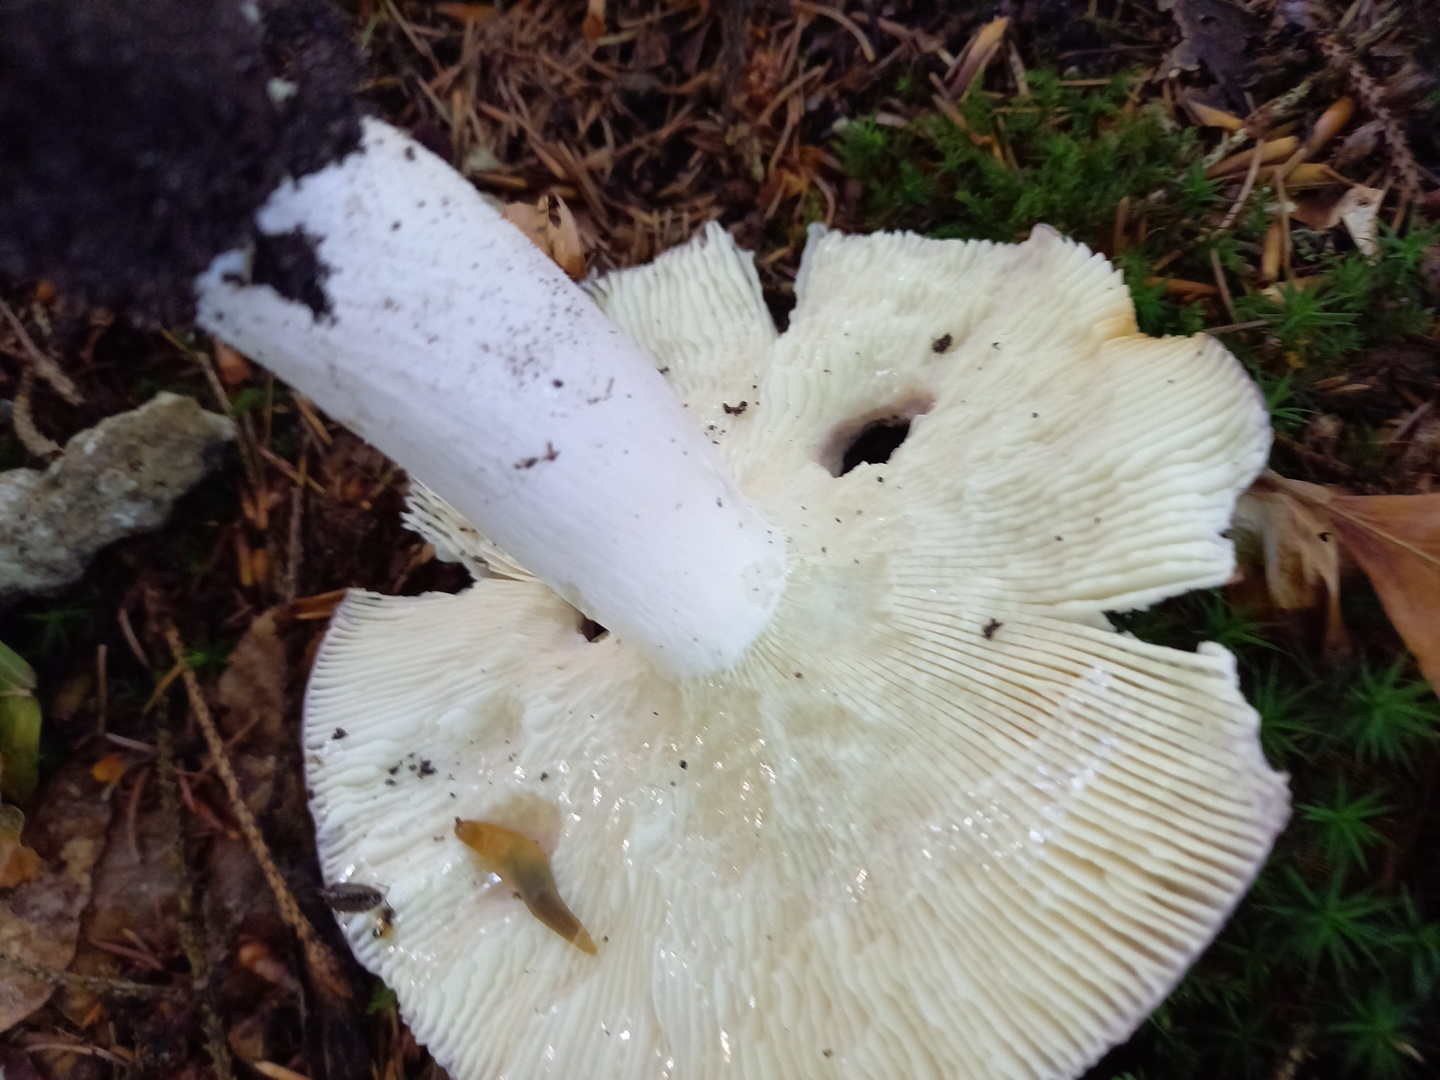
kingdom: Fungi
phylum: Basidiomycota
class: Agaricomycetes
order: Russulales
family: Russulaceae
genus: Russula
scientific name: Russula cyanoxantha
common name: broget skørhat
